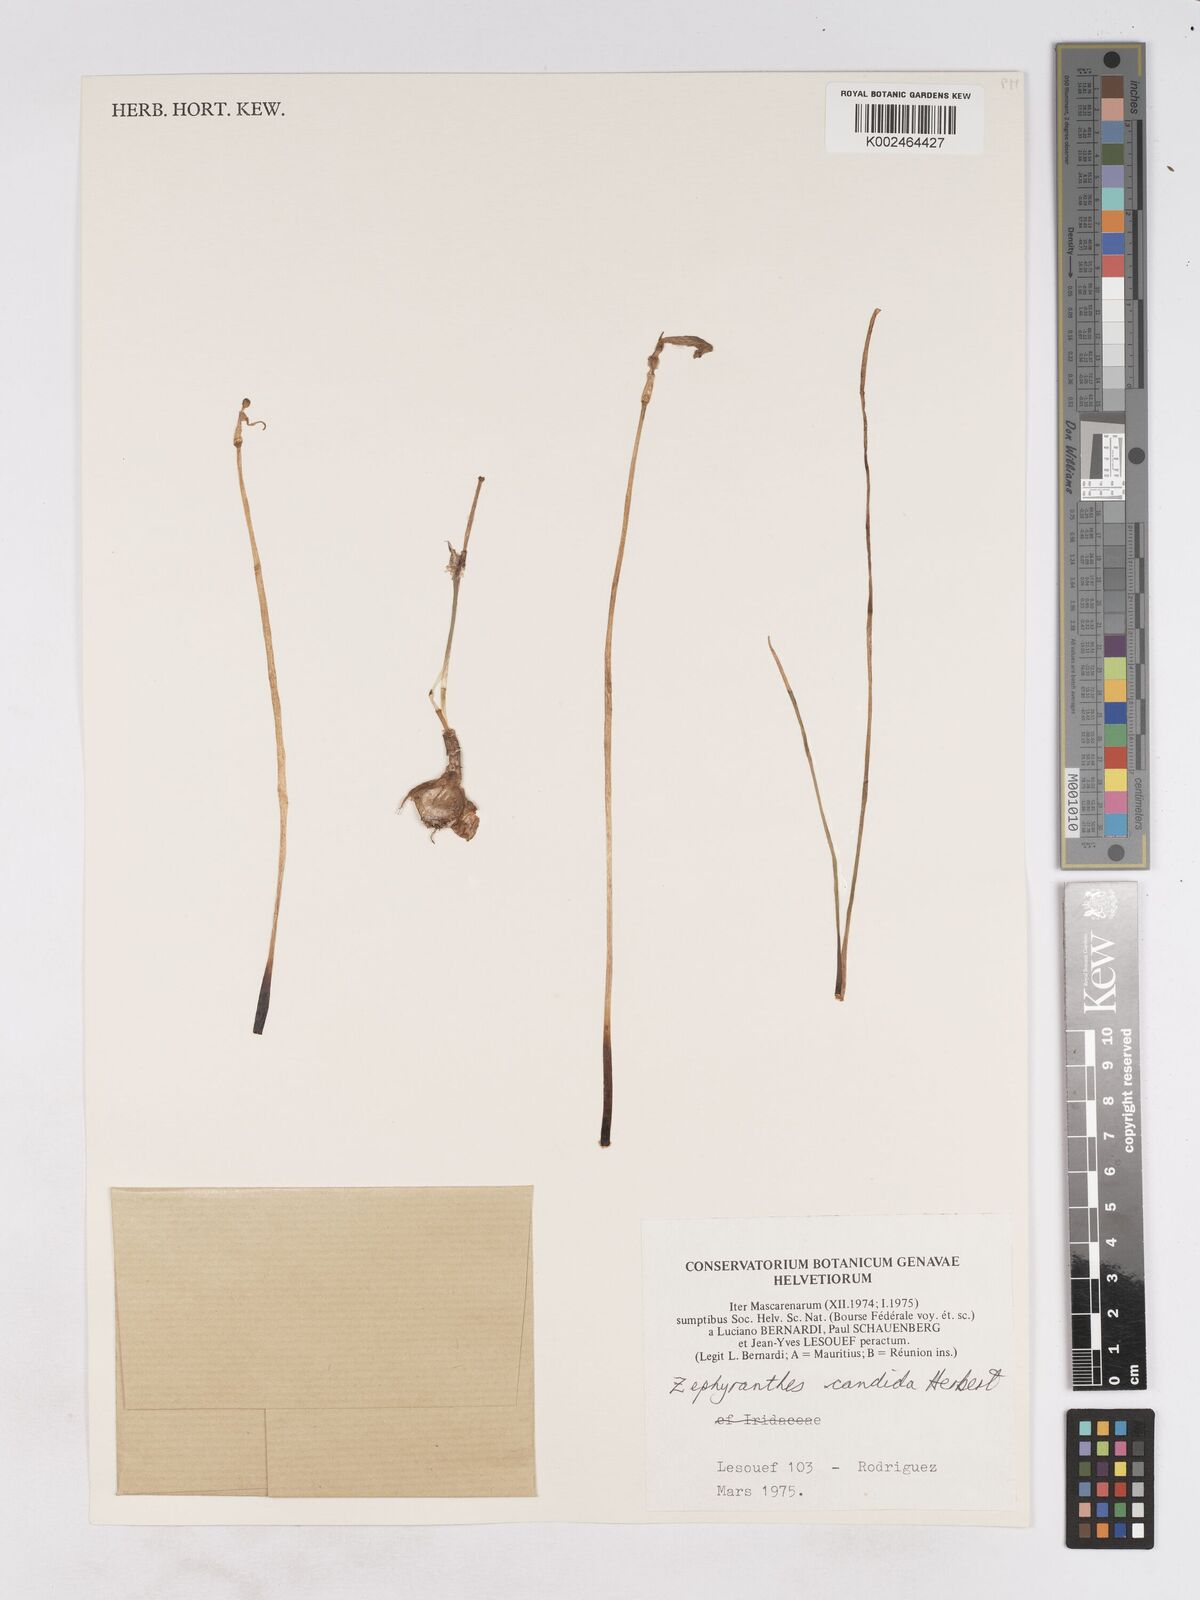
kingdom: Plantae
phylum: Tracheophyta
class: Liliopsida
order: Asparagales
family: Amaryllidaceae
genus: Zephyranthes
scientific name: Zephyranthes candida
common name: Autumn zephyrlily
